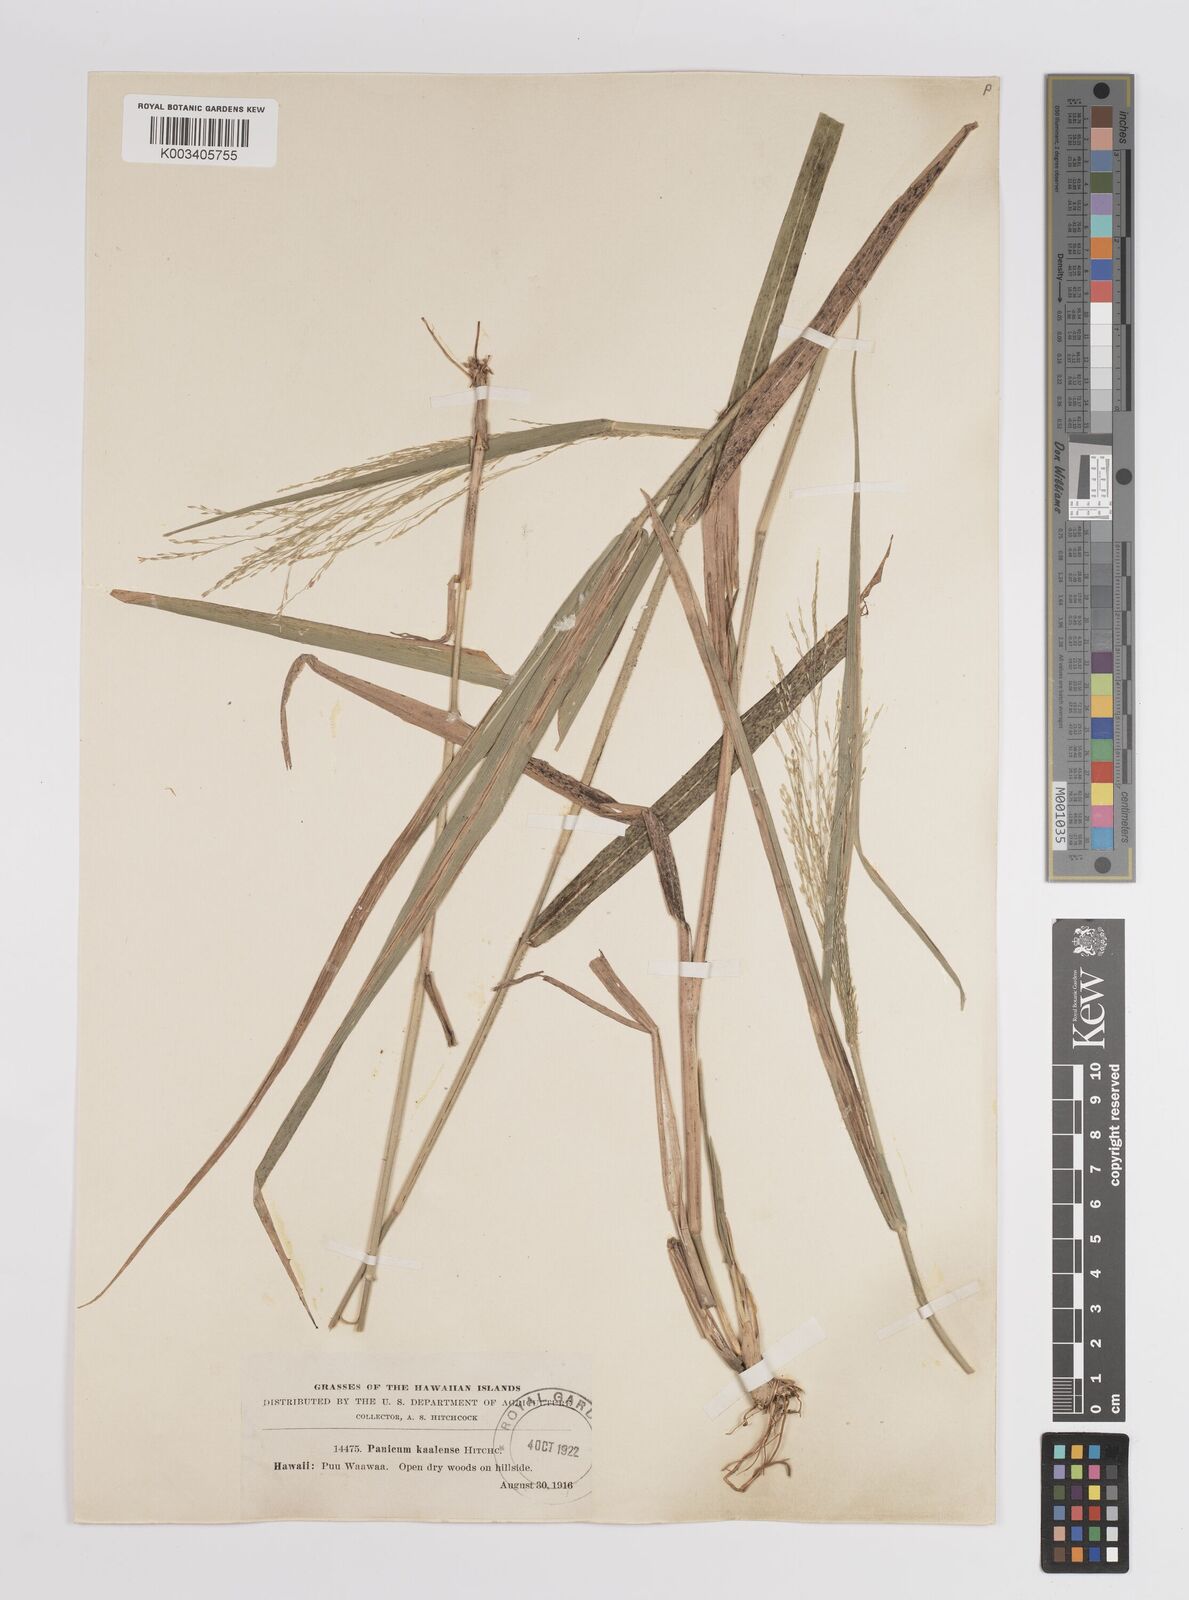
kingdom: Plantae
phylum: Tracheophyta
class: Liliopsida
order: Poales
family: Poaceae
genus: Panicum
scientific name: Panicum nephelophilum
